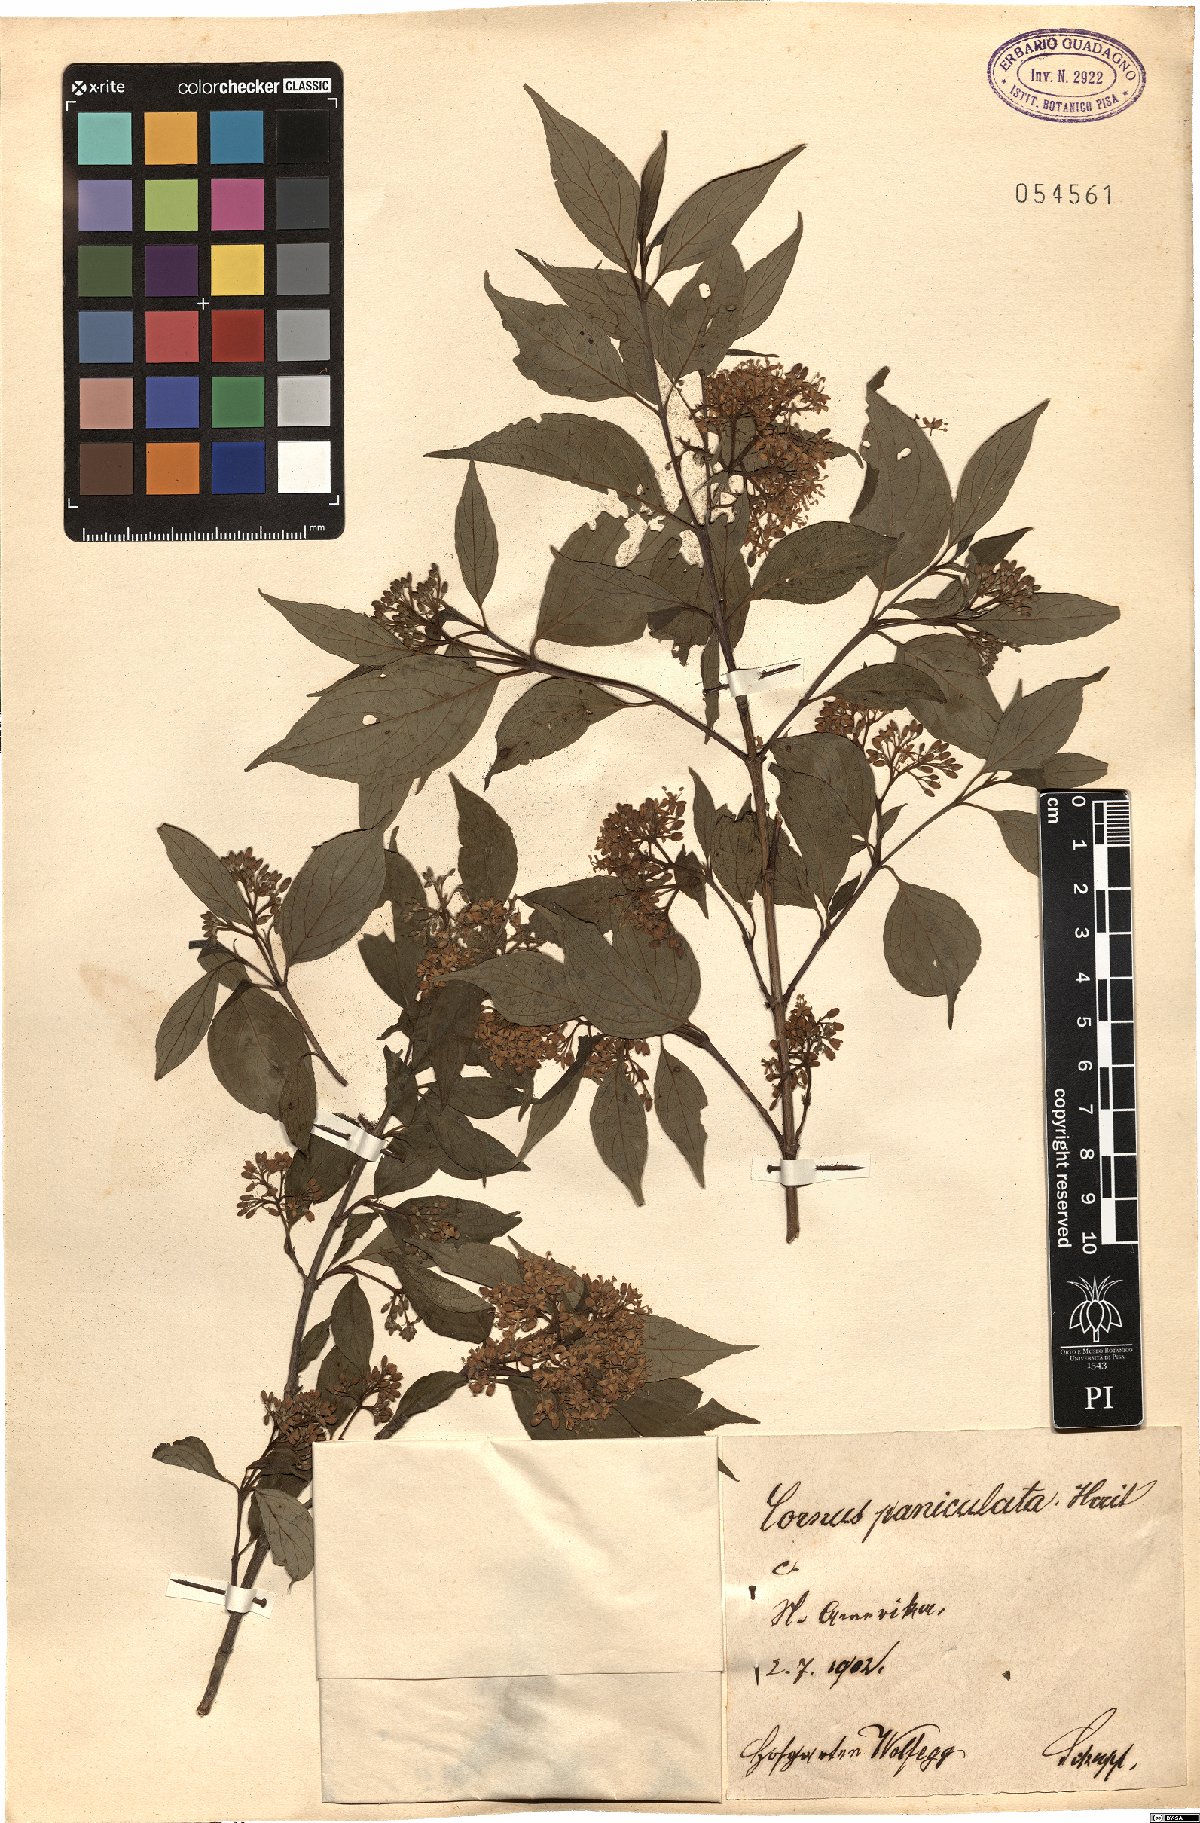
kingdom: Plantae
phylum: Tracheophyta
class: Magnoliopsida
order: Cornales
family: Cornaceae
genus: Cornus
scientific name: Cornus
